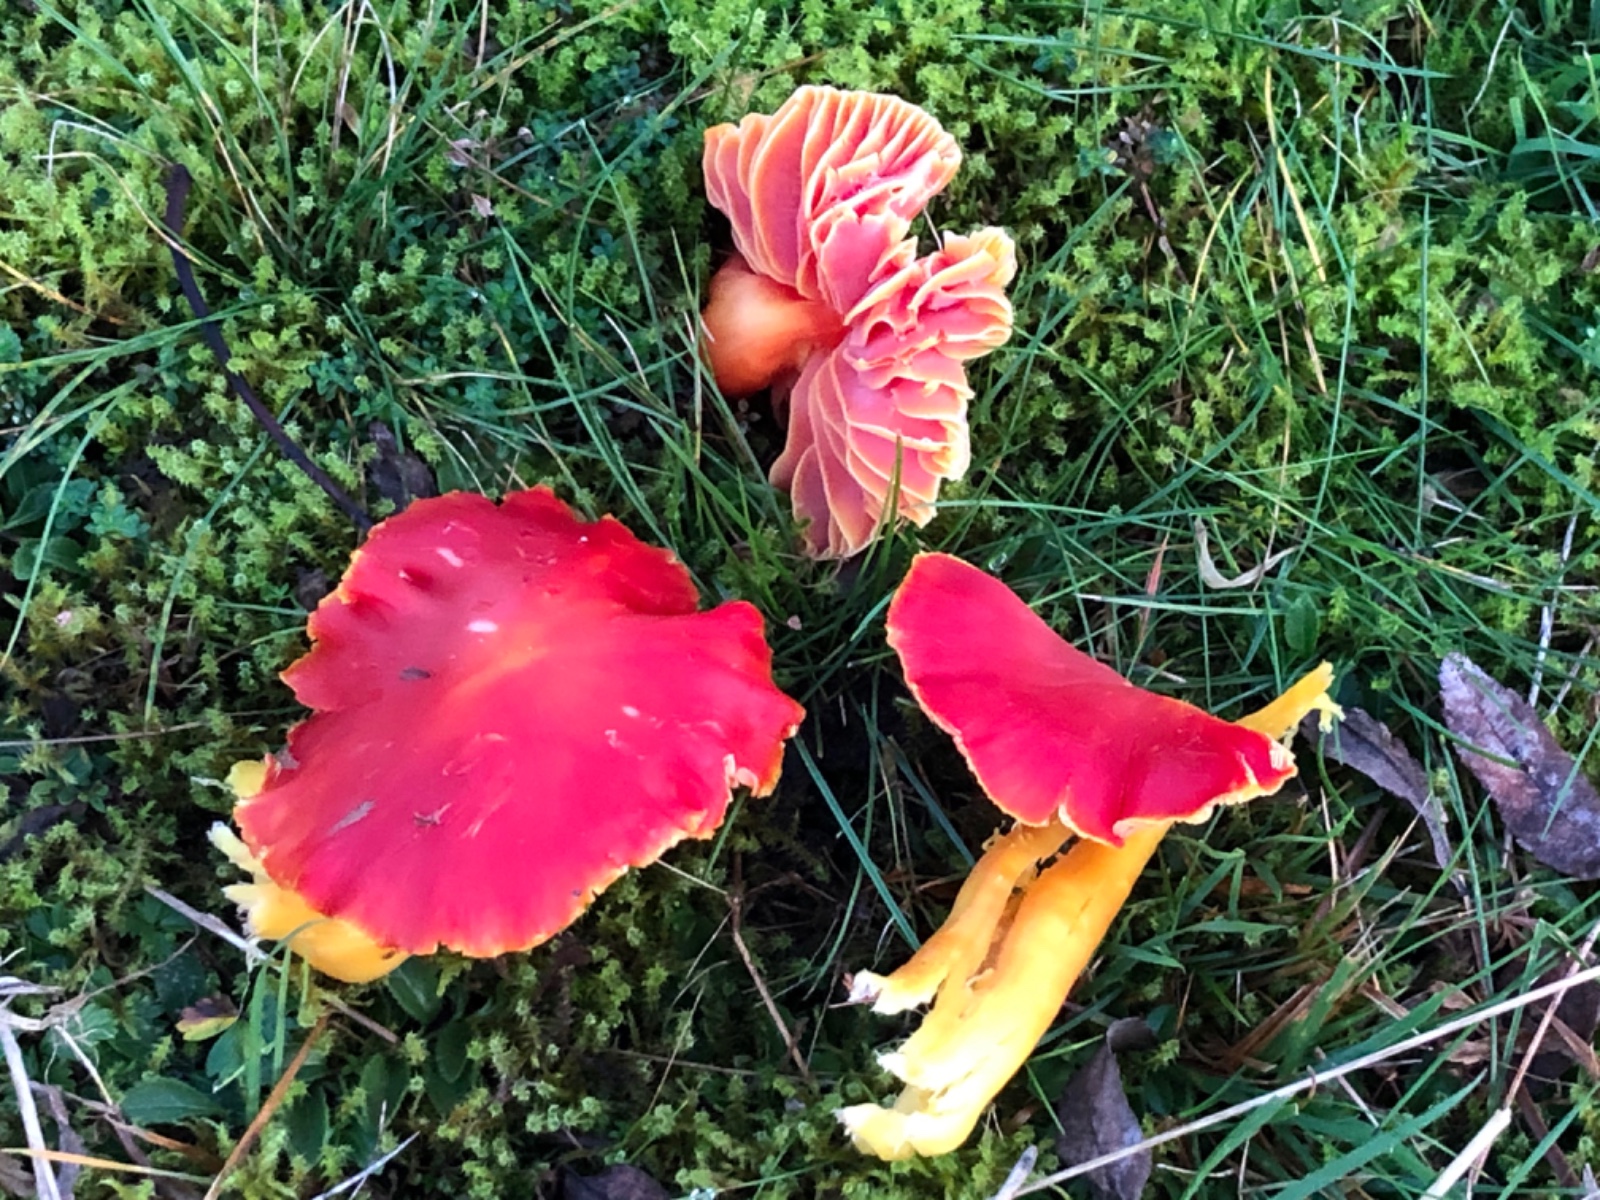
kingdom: Fungi
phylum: Basidiomycota
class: Agaricomycetes
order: Agaricales
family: Hygrophoraceae
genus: Hygrocybe
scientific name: Hygrocybe splendidissima
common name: knaldrød vokshat
